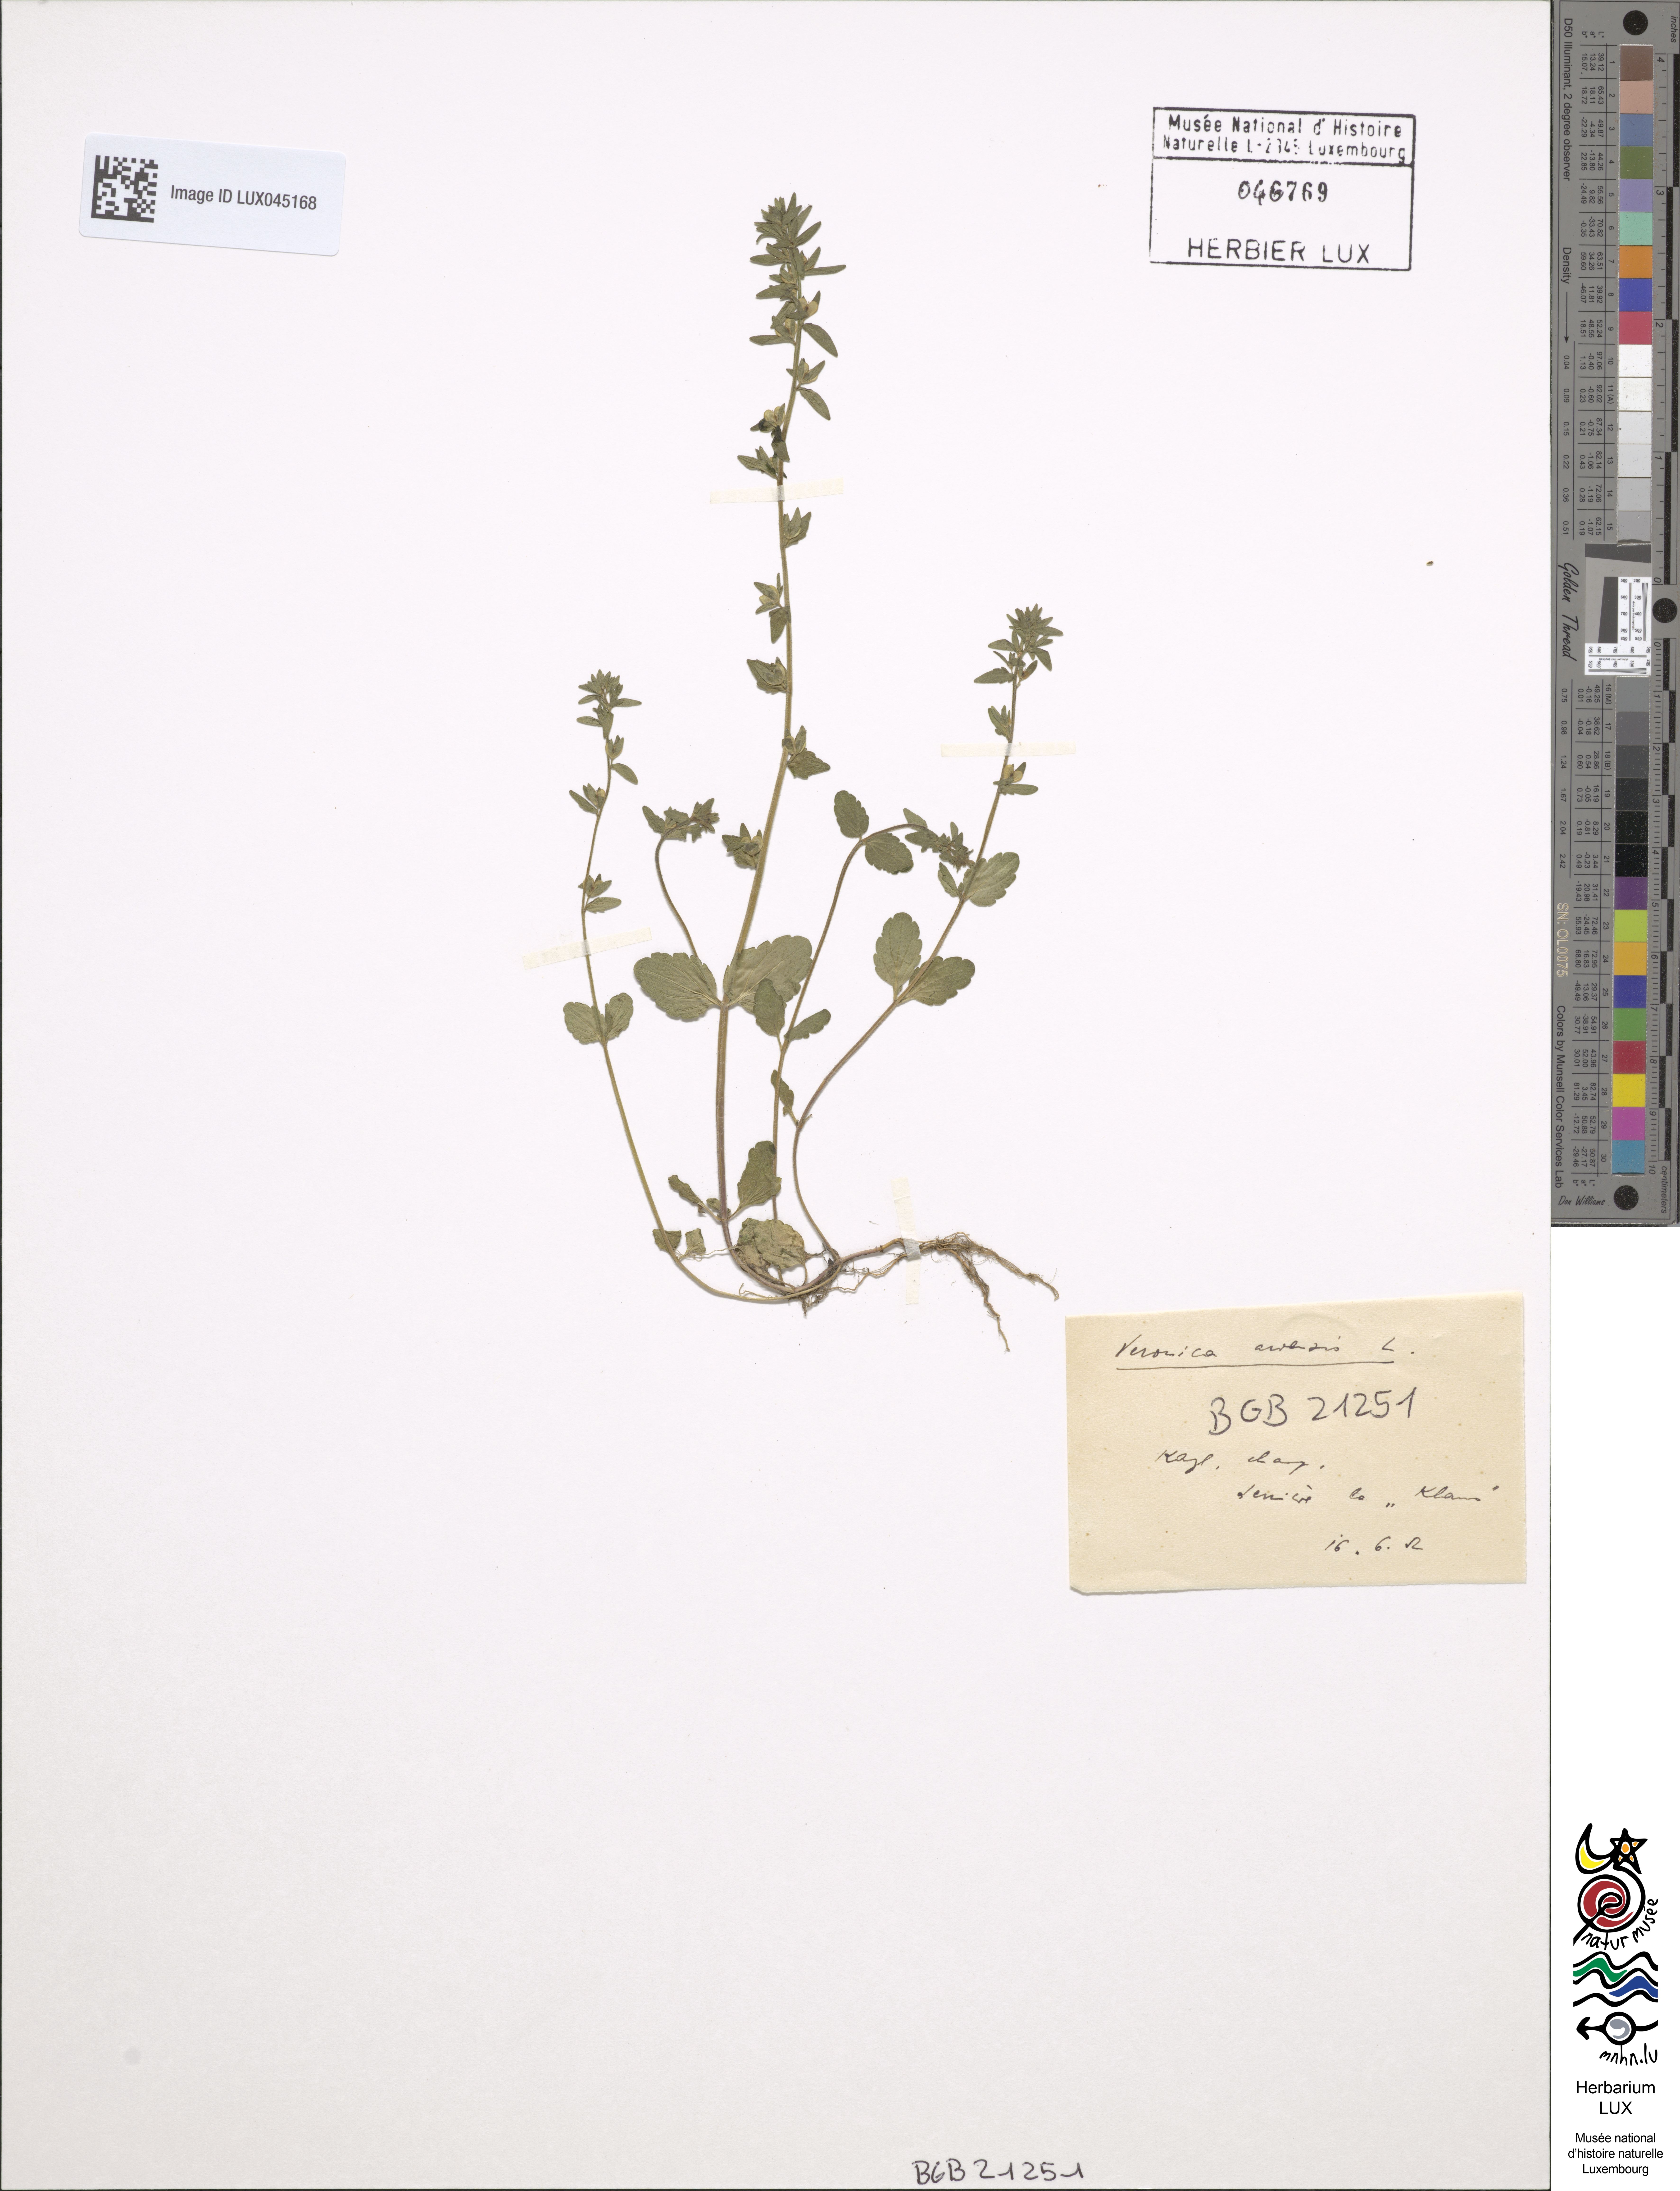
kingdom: Plantae
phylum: Tracheophyta
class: Magnoliopsida
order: Lamiales
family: Plantaginaceae
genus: Veronica
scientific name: Veronica arvensis
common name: Corn speedwell
